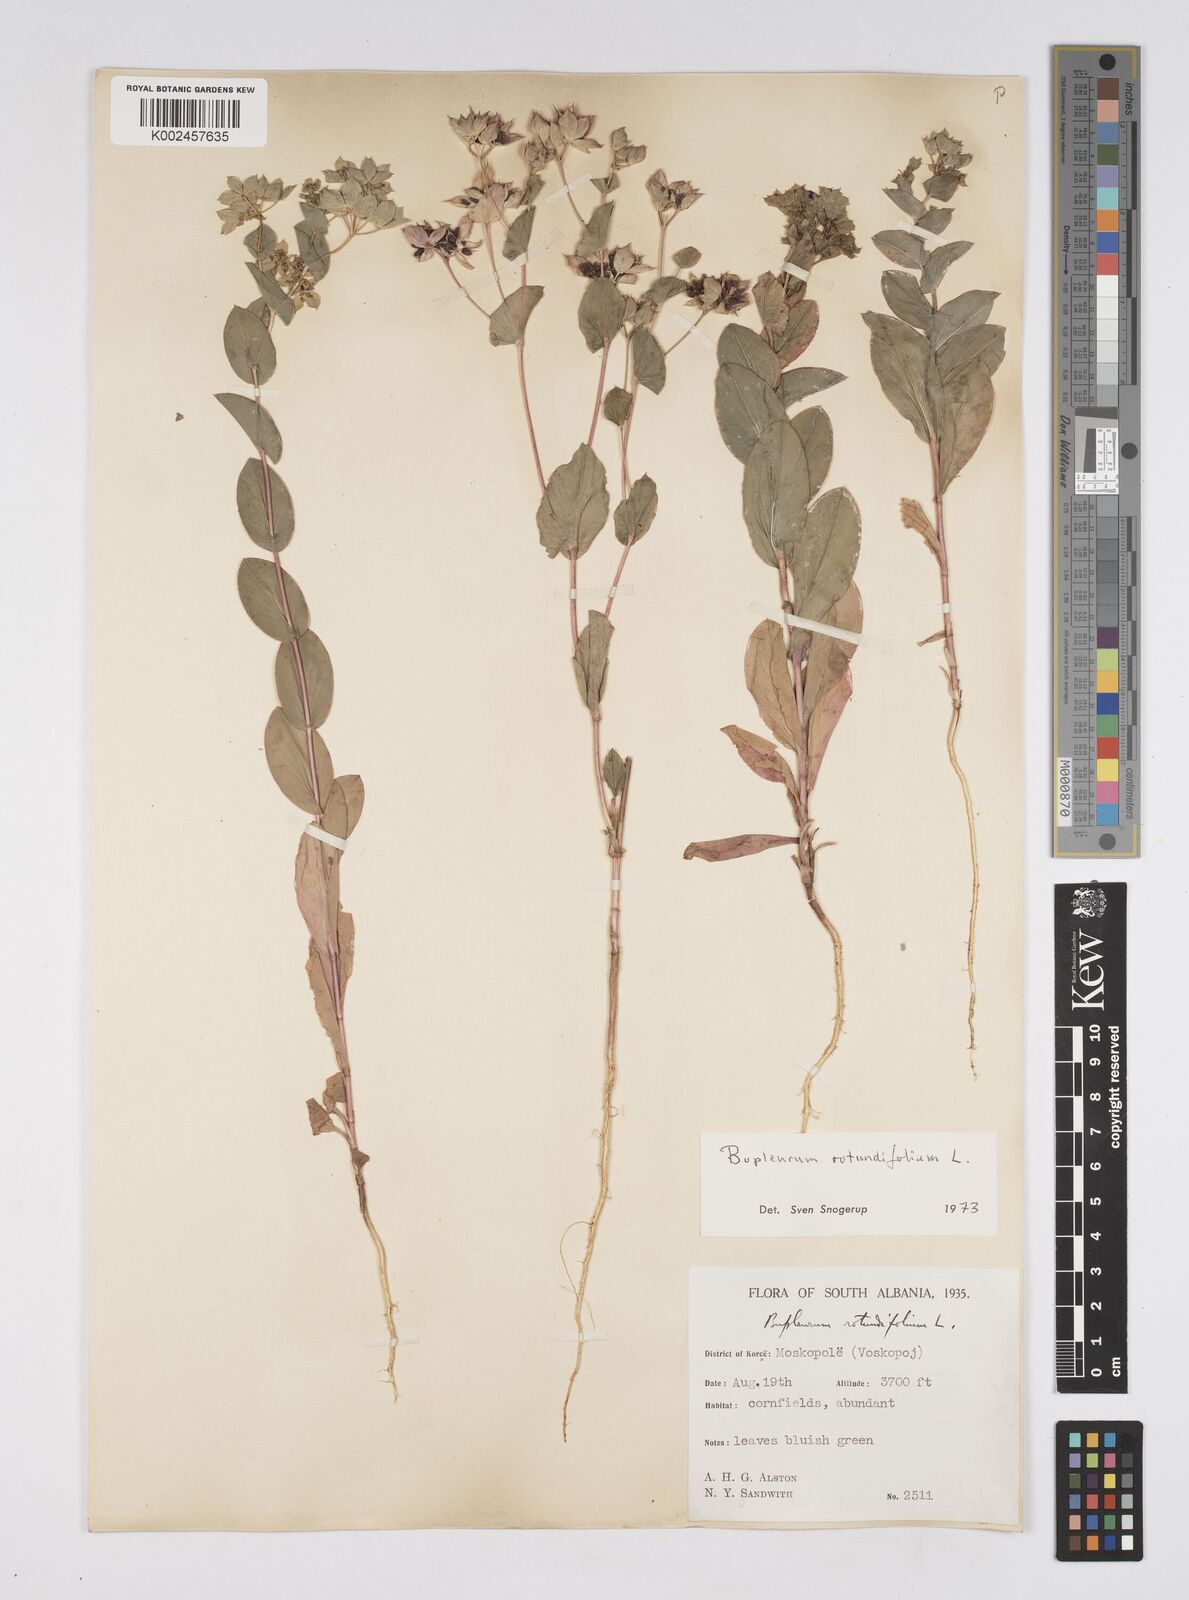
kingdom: Plantae
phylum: Tracheophyta
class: Magnoliopsida
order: Apiales
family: Apiaceae
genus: Bupleurum
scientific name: Bupleurum rotundifolium
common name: Thorow-wax
